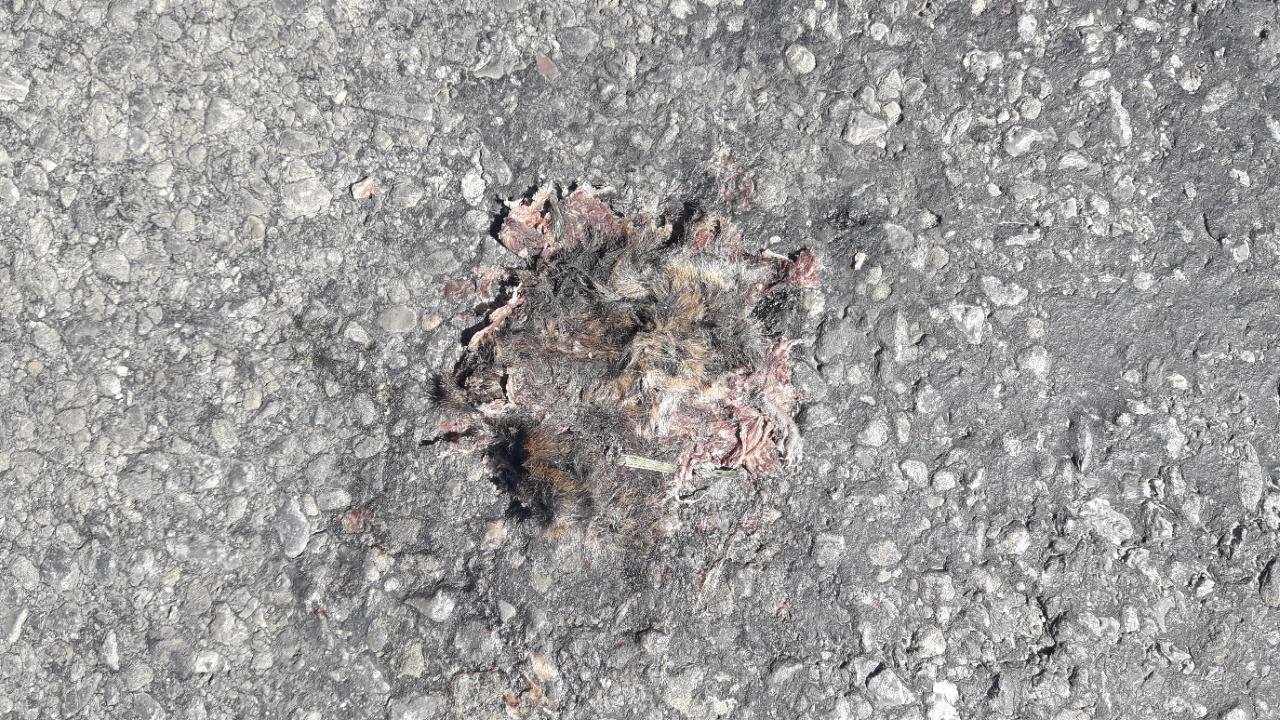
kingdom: Animalia
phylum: Chordata
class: Mammalia
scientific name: Mammalia
